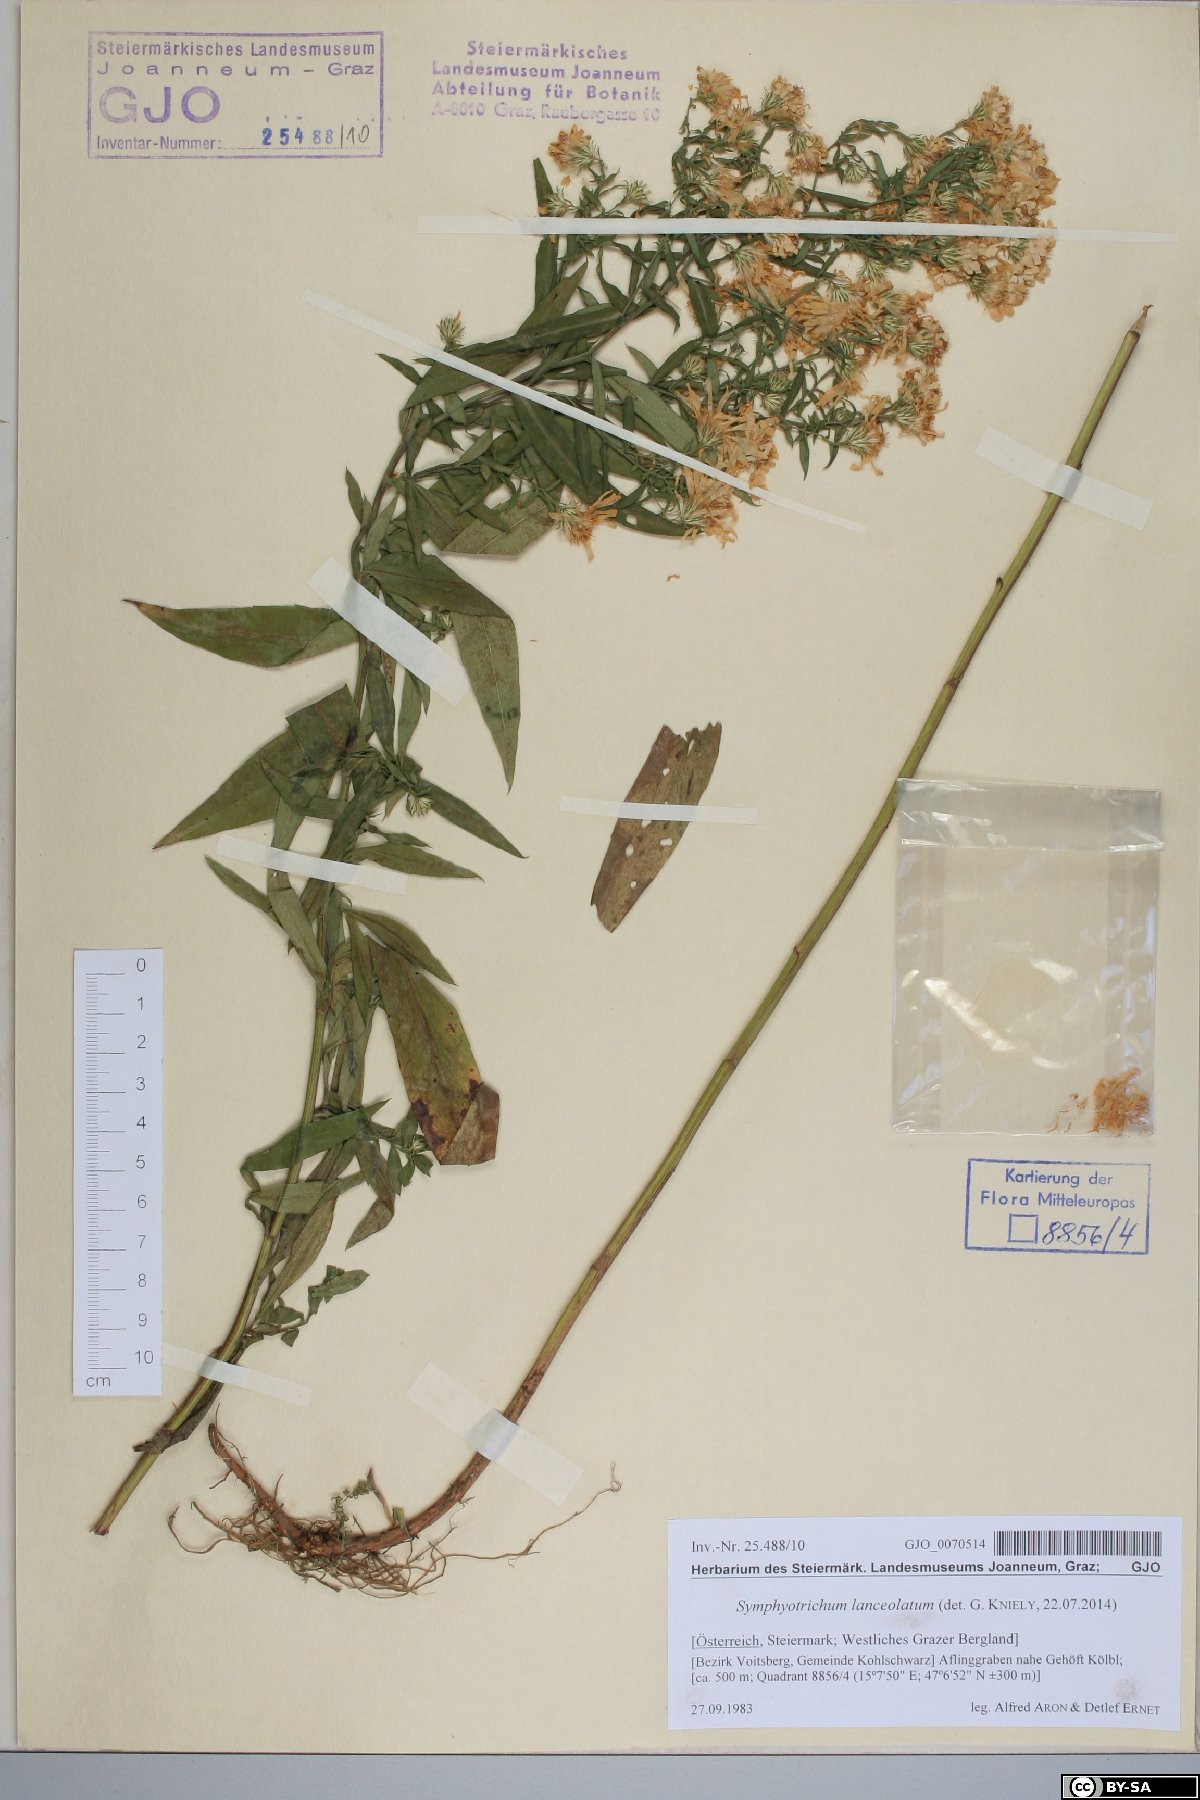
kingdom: Plantae
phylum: Tracheophyta
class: Magnoliopsida
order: Asterales
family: Asteraceae
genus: Symphyotrichum
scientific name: Symphyotrichum lanceolatum
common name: Panicled aster
